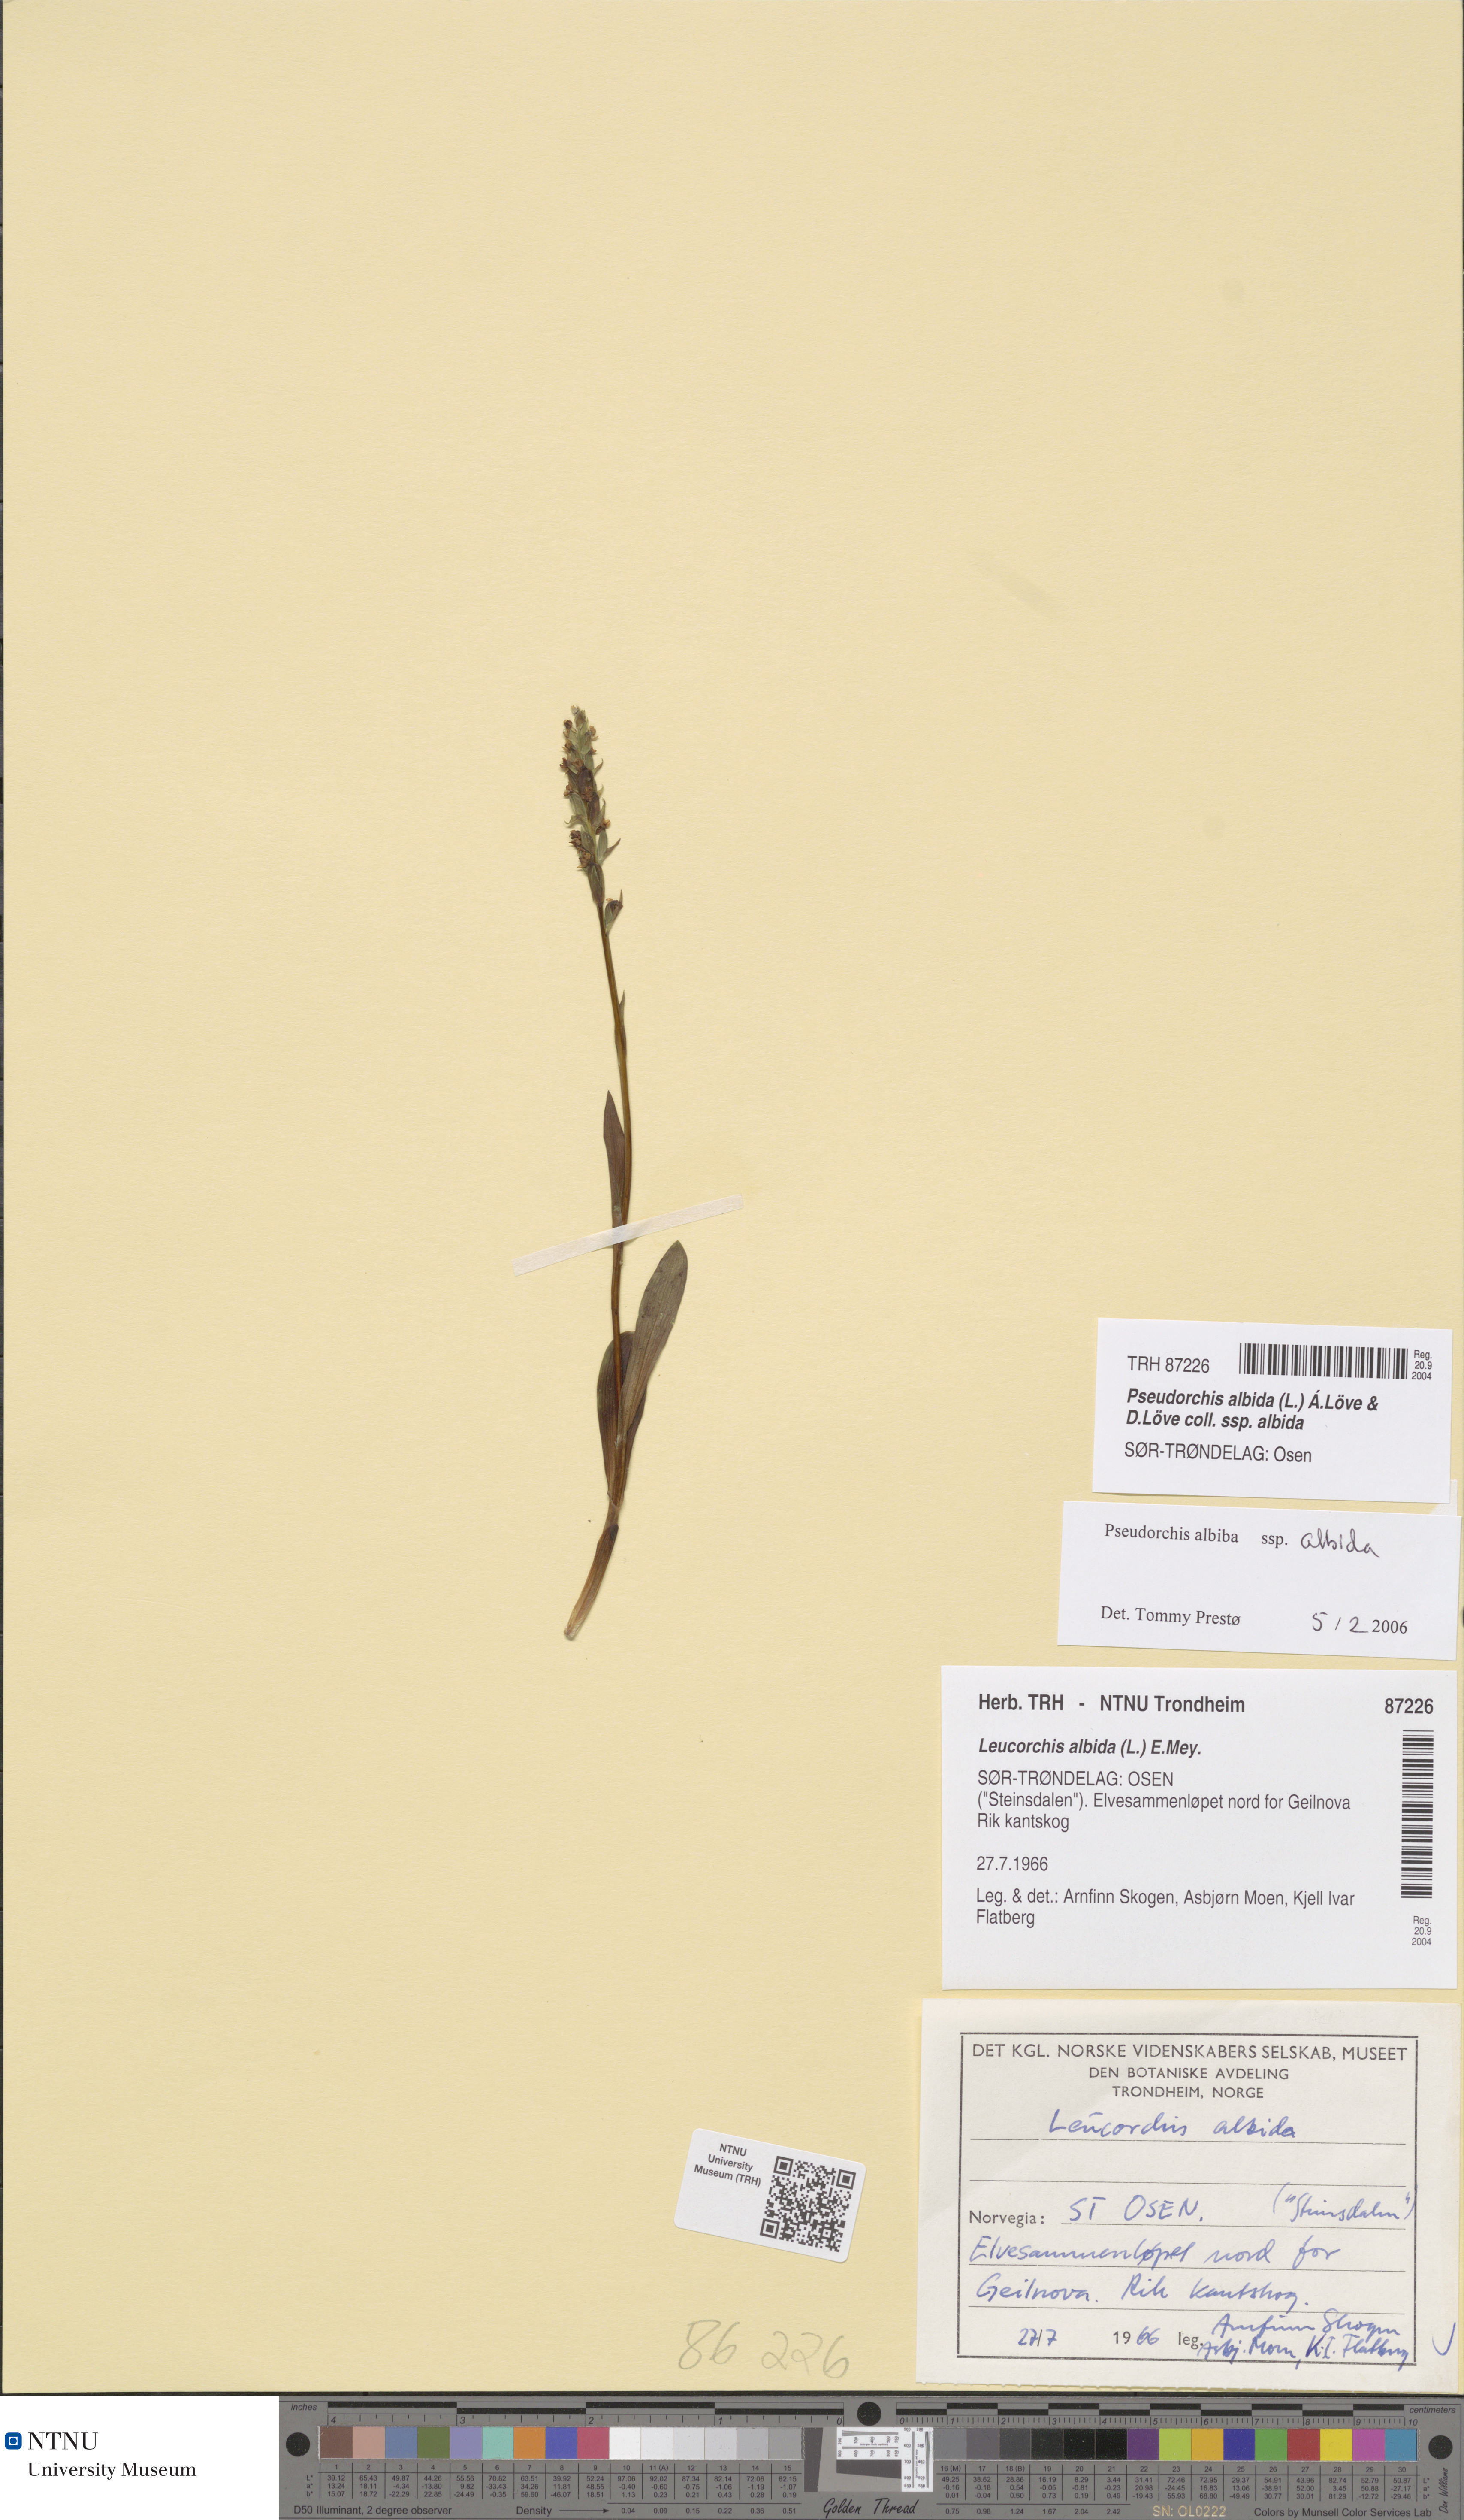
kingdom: Plantae
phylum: Tracheophyta
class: Liliopsida
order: Asparagales
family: Orchidaceae
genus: Pseudorchis
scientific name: Pseudorchis albida
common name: Small-white orchid
